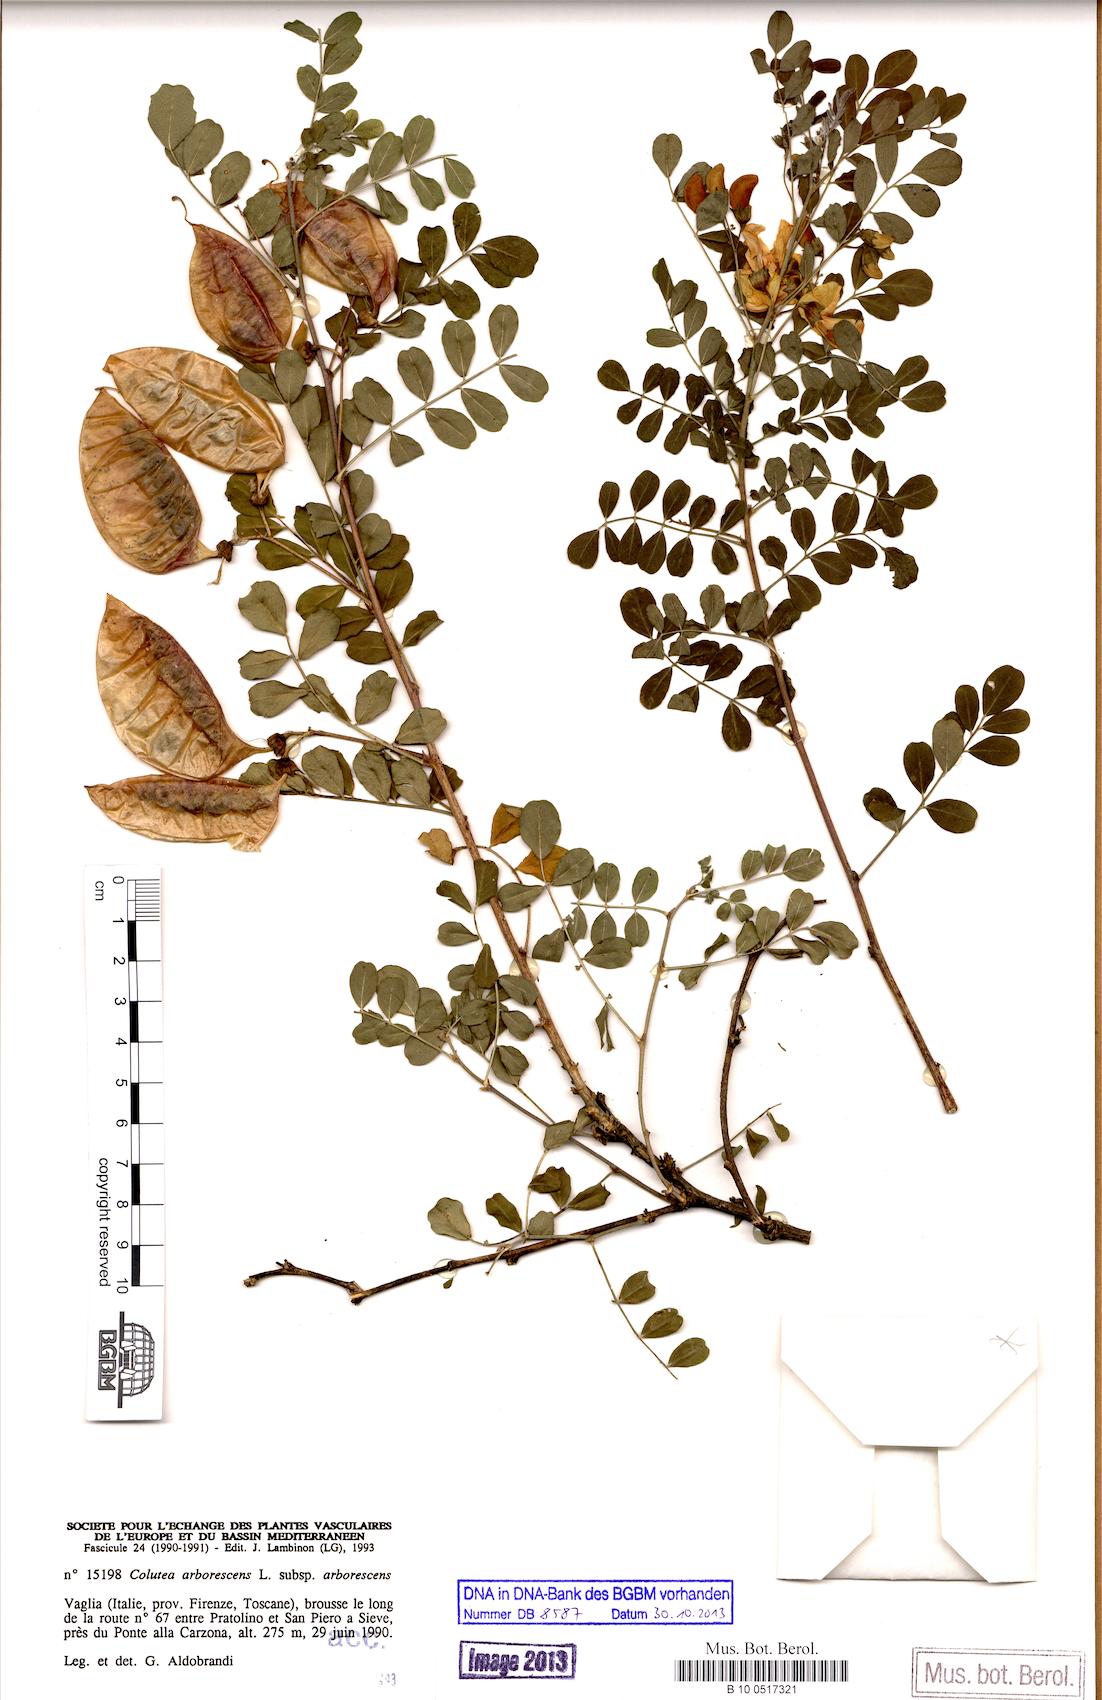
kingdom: Plantae
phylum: Tracheophyta
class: Magnoliopsida
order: Fabales
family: Fabaceae
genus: Colutea
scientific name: Colutea arborescens
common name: Bladder-senna
